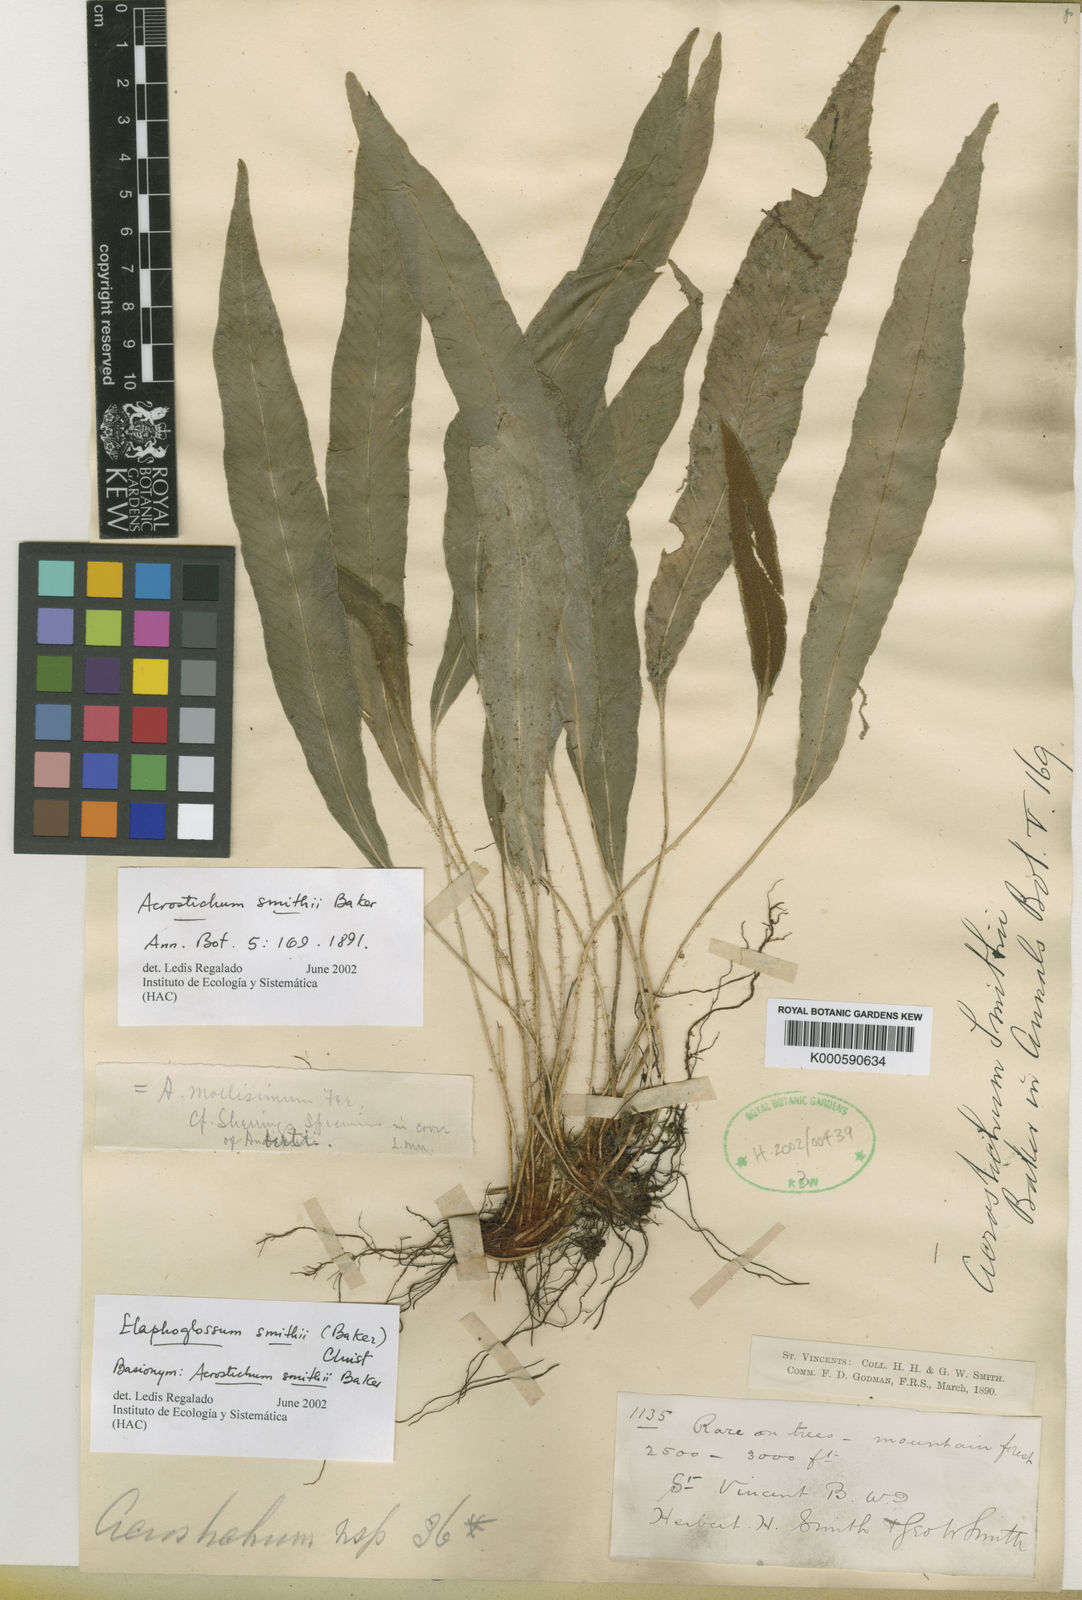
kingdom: Plantae
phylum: Tracheophyta
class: Polypodiopsida
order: Polypodiales
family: Dryopteridaceae
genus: Elaphoglossum
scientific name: Elaphoglossum smithii
